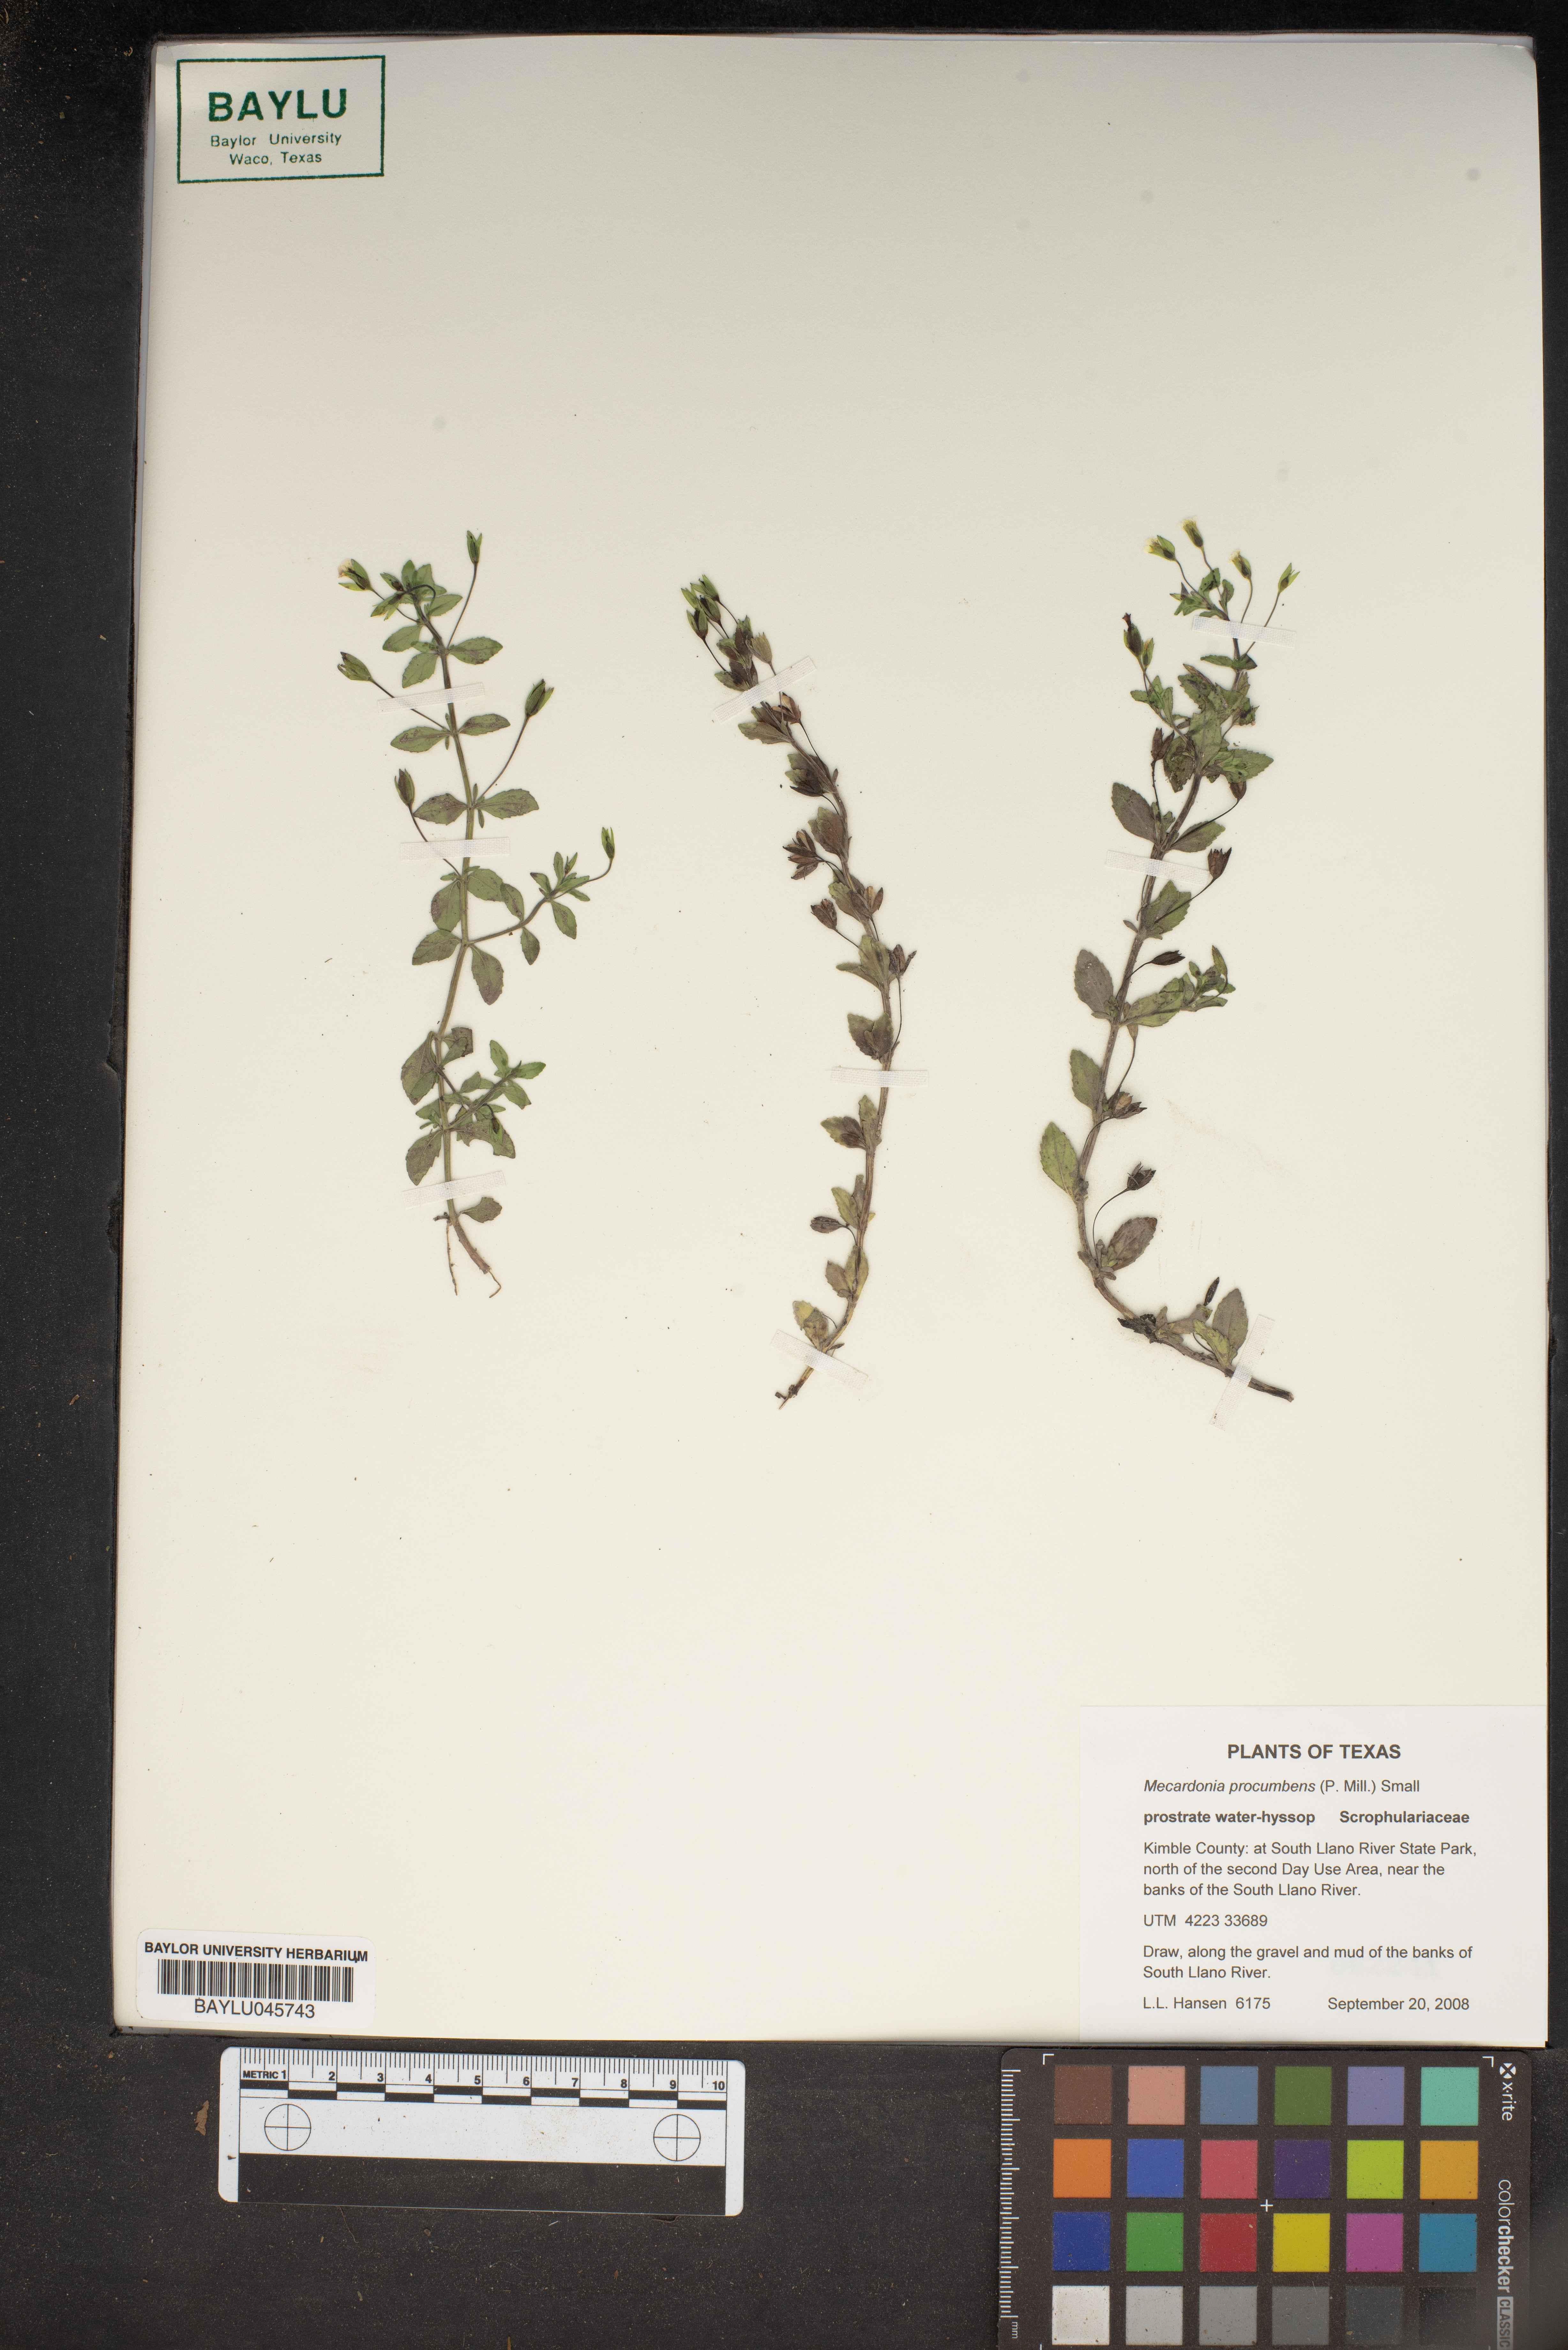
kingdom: Plantae
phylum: Tracheophyta
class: Magnoliopsida
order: Lamiales
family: Plantaginaceae
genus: Mecardonia
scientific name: Mecardonia procumbens
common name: Baby jump-up
